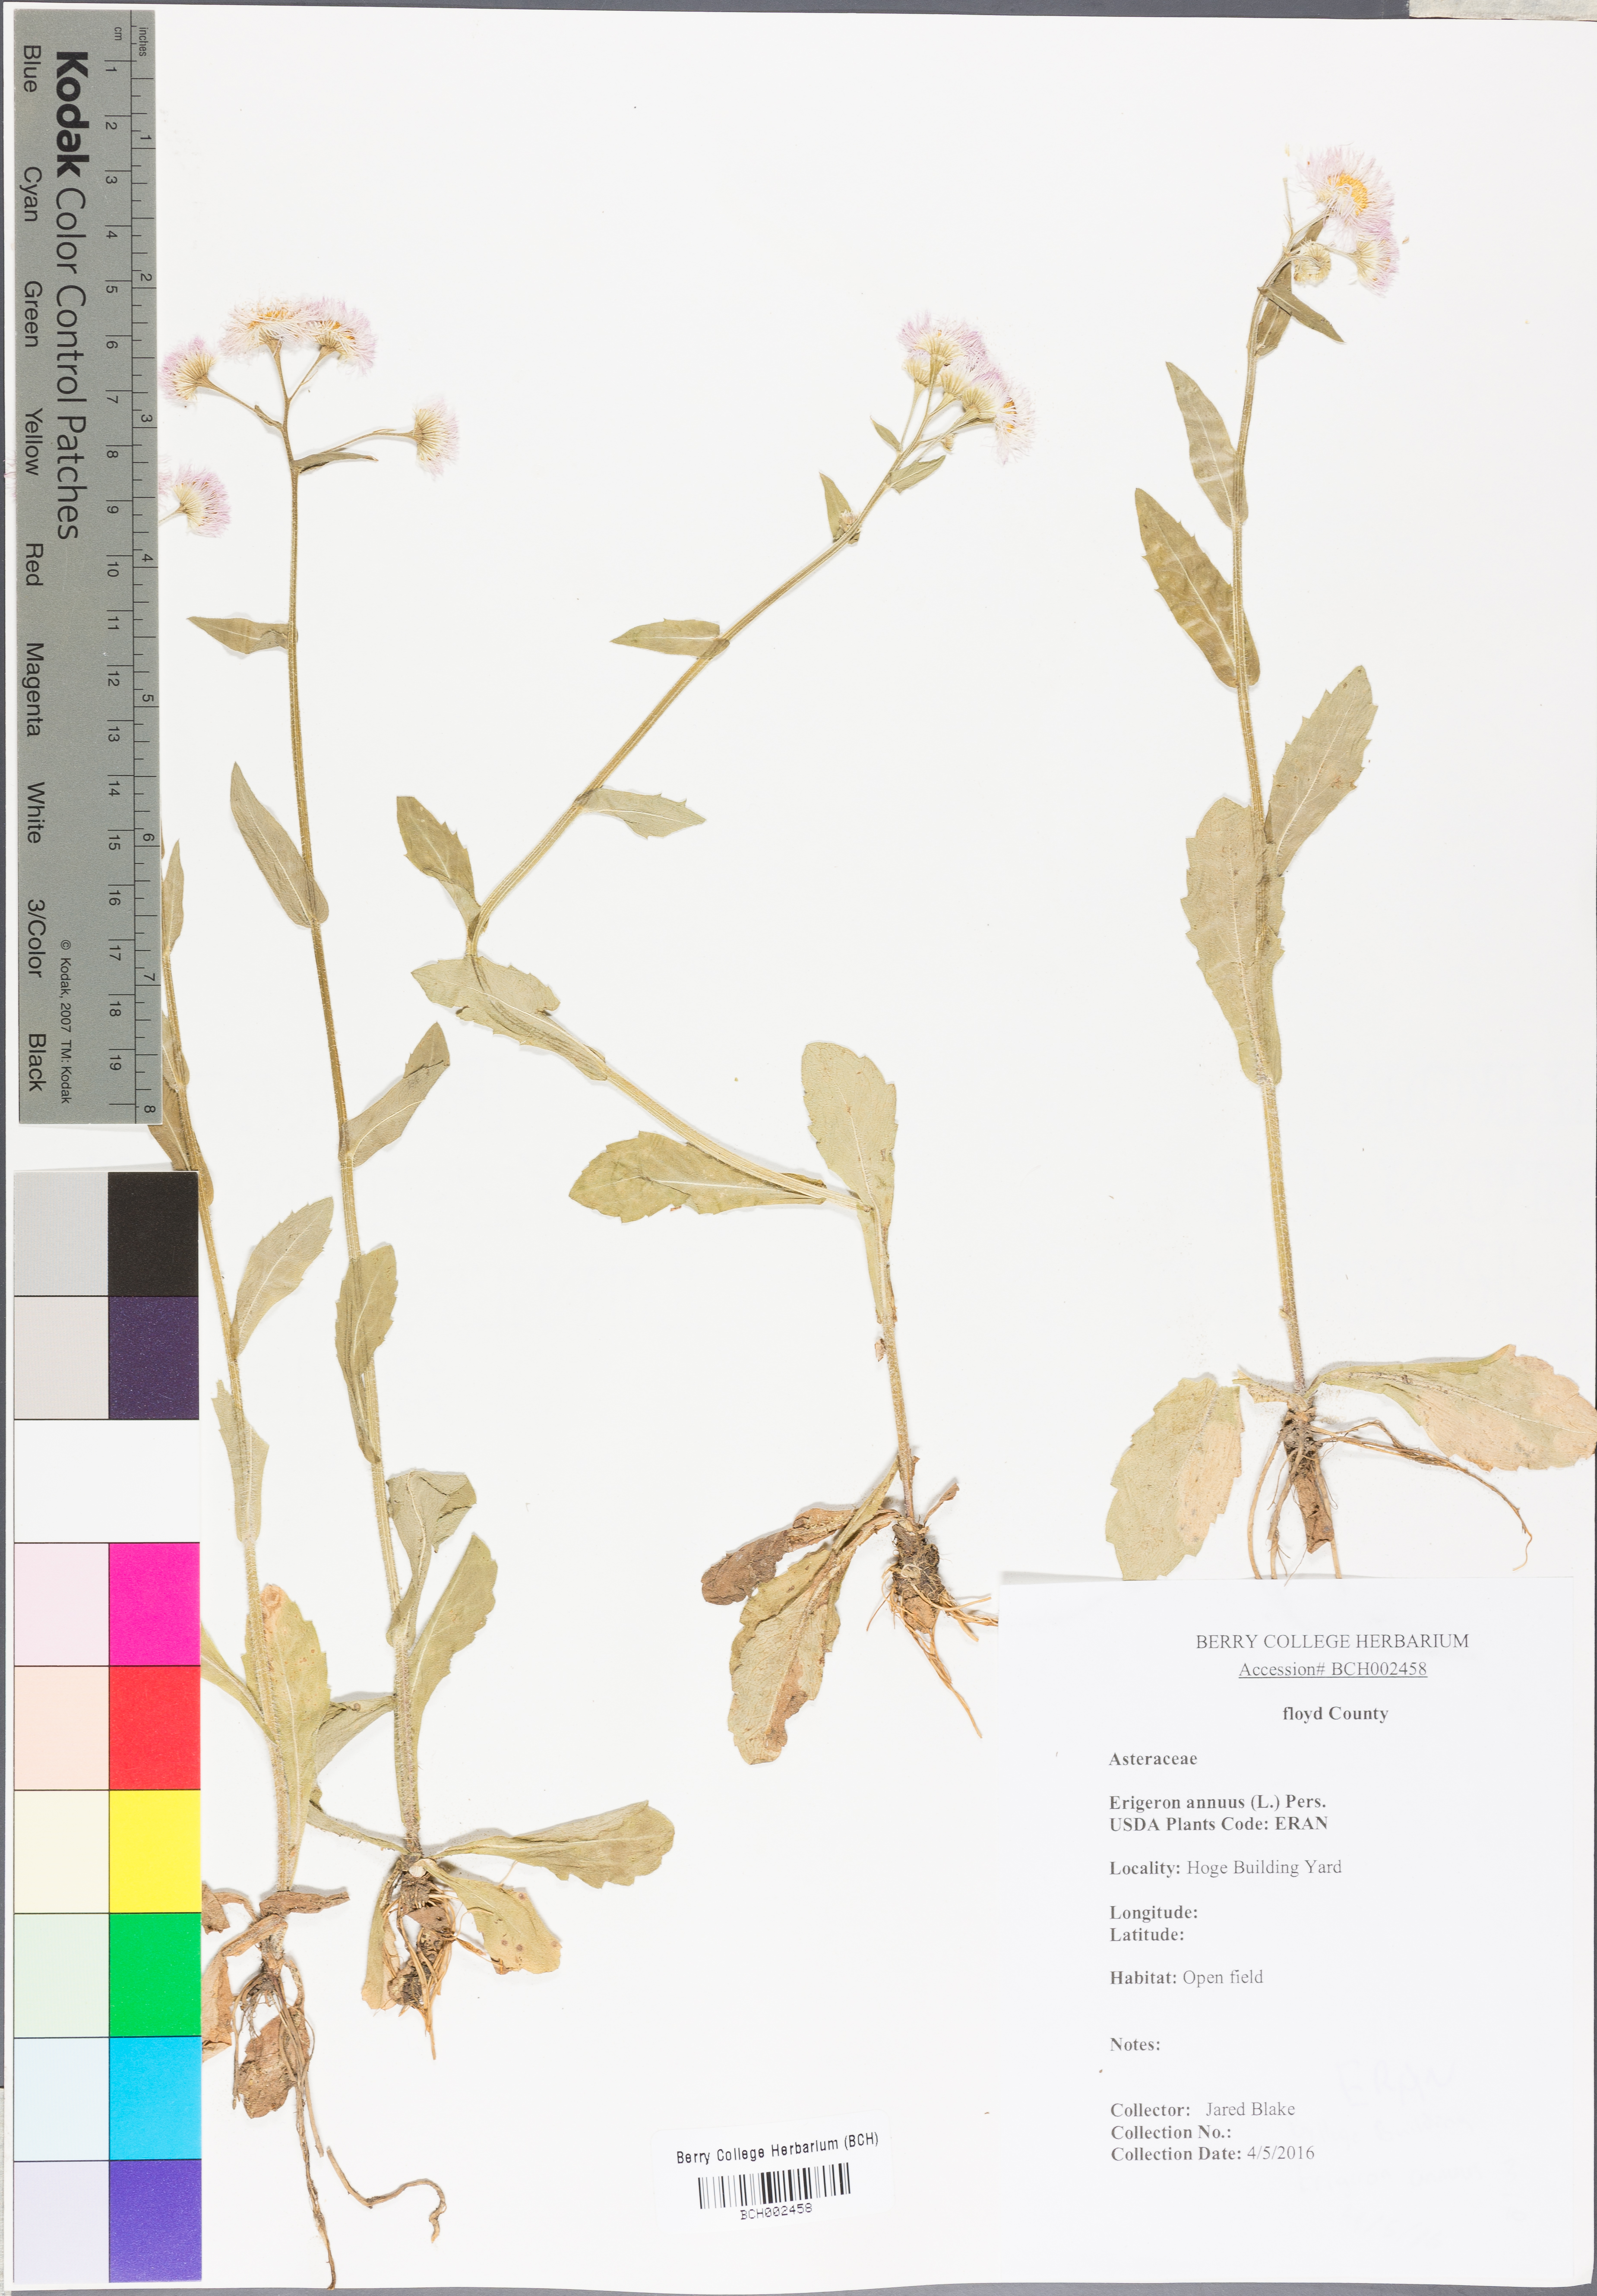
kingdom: Plantae
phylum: Tracheophyta
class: Magnoliopsida
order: Asterales
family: Asteraceae
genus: Erigeron
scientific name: Erigeron annuus
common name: Tall fleabane
